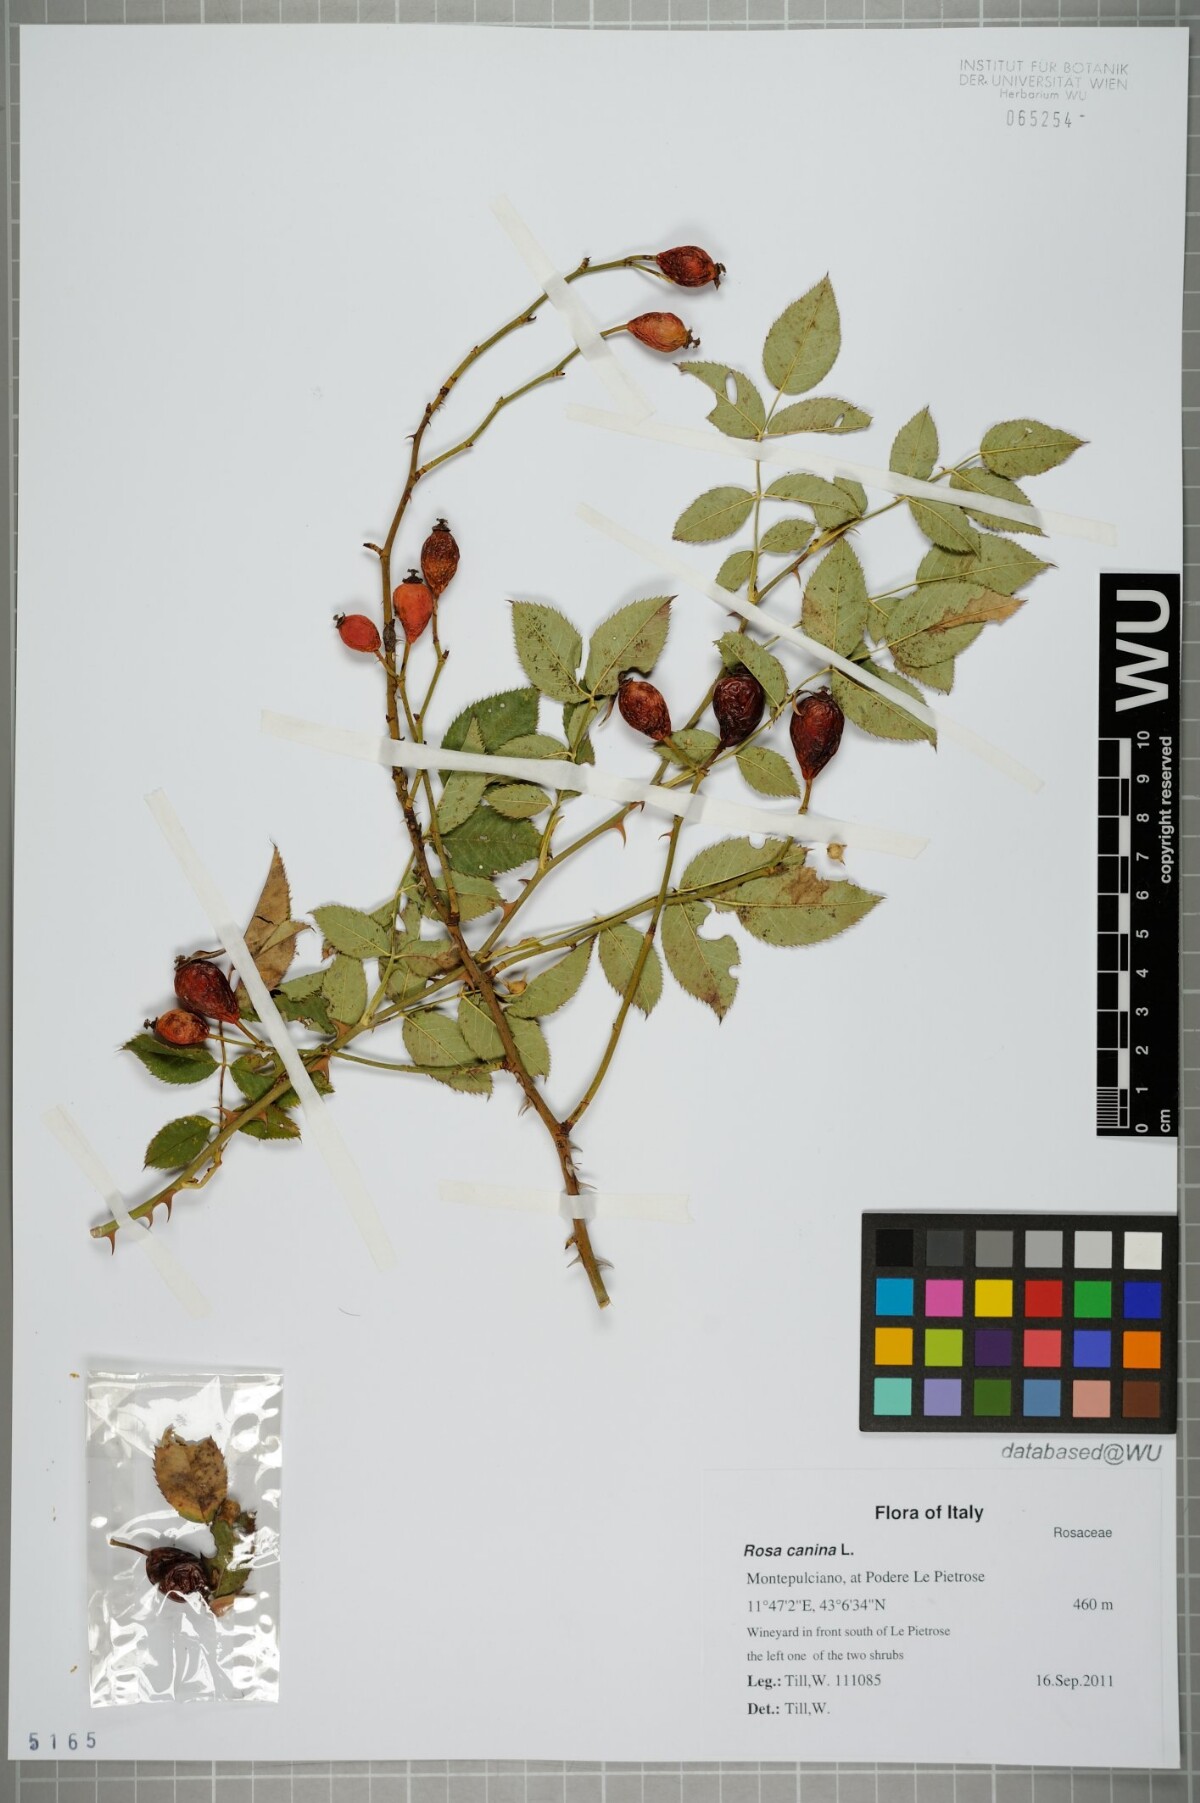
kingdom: Plantae
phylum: Tracheophyta
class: Magnoliopsida
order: Rosales
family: Rosaceae
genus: Rosa
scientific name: Rosa canina
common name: Dog rose
